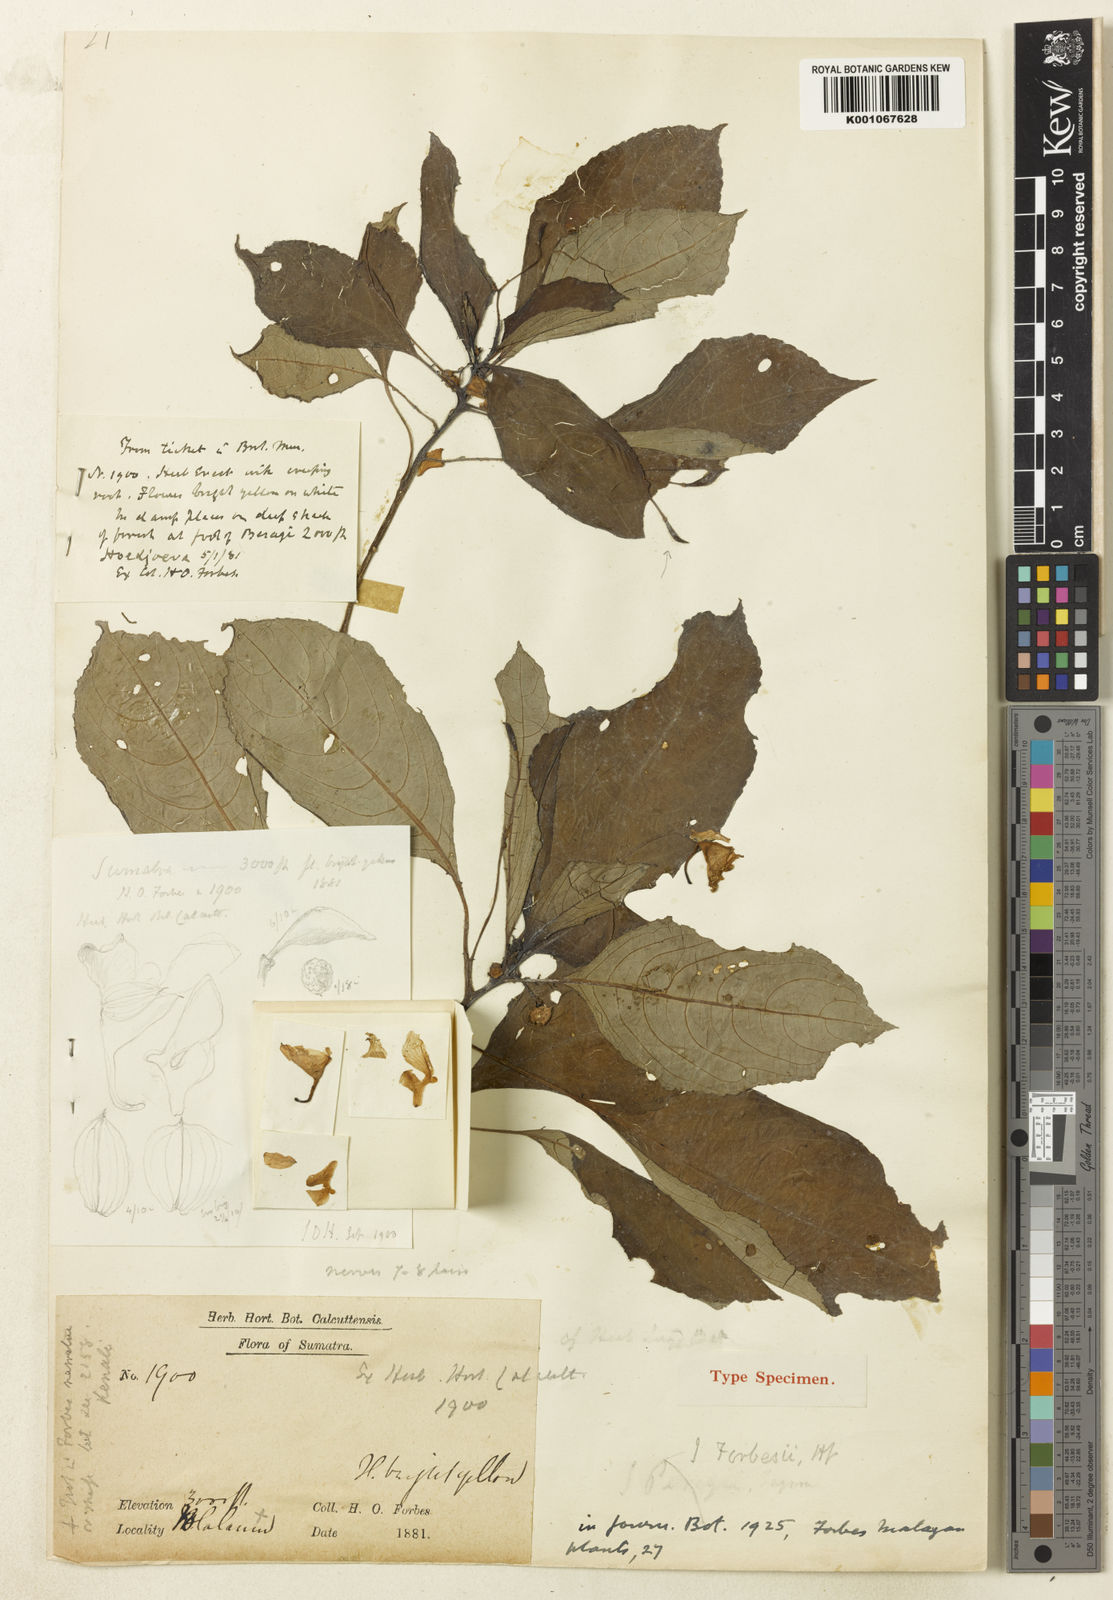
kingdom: Plantae
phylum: Tracheophyta
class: Magnoliopsida
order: Ericales
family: Balsaminaceae
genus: Impatiens
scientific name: Impatiens
